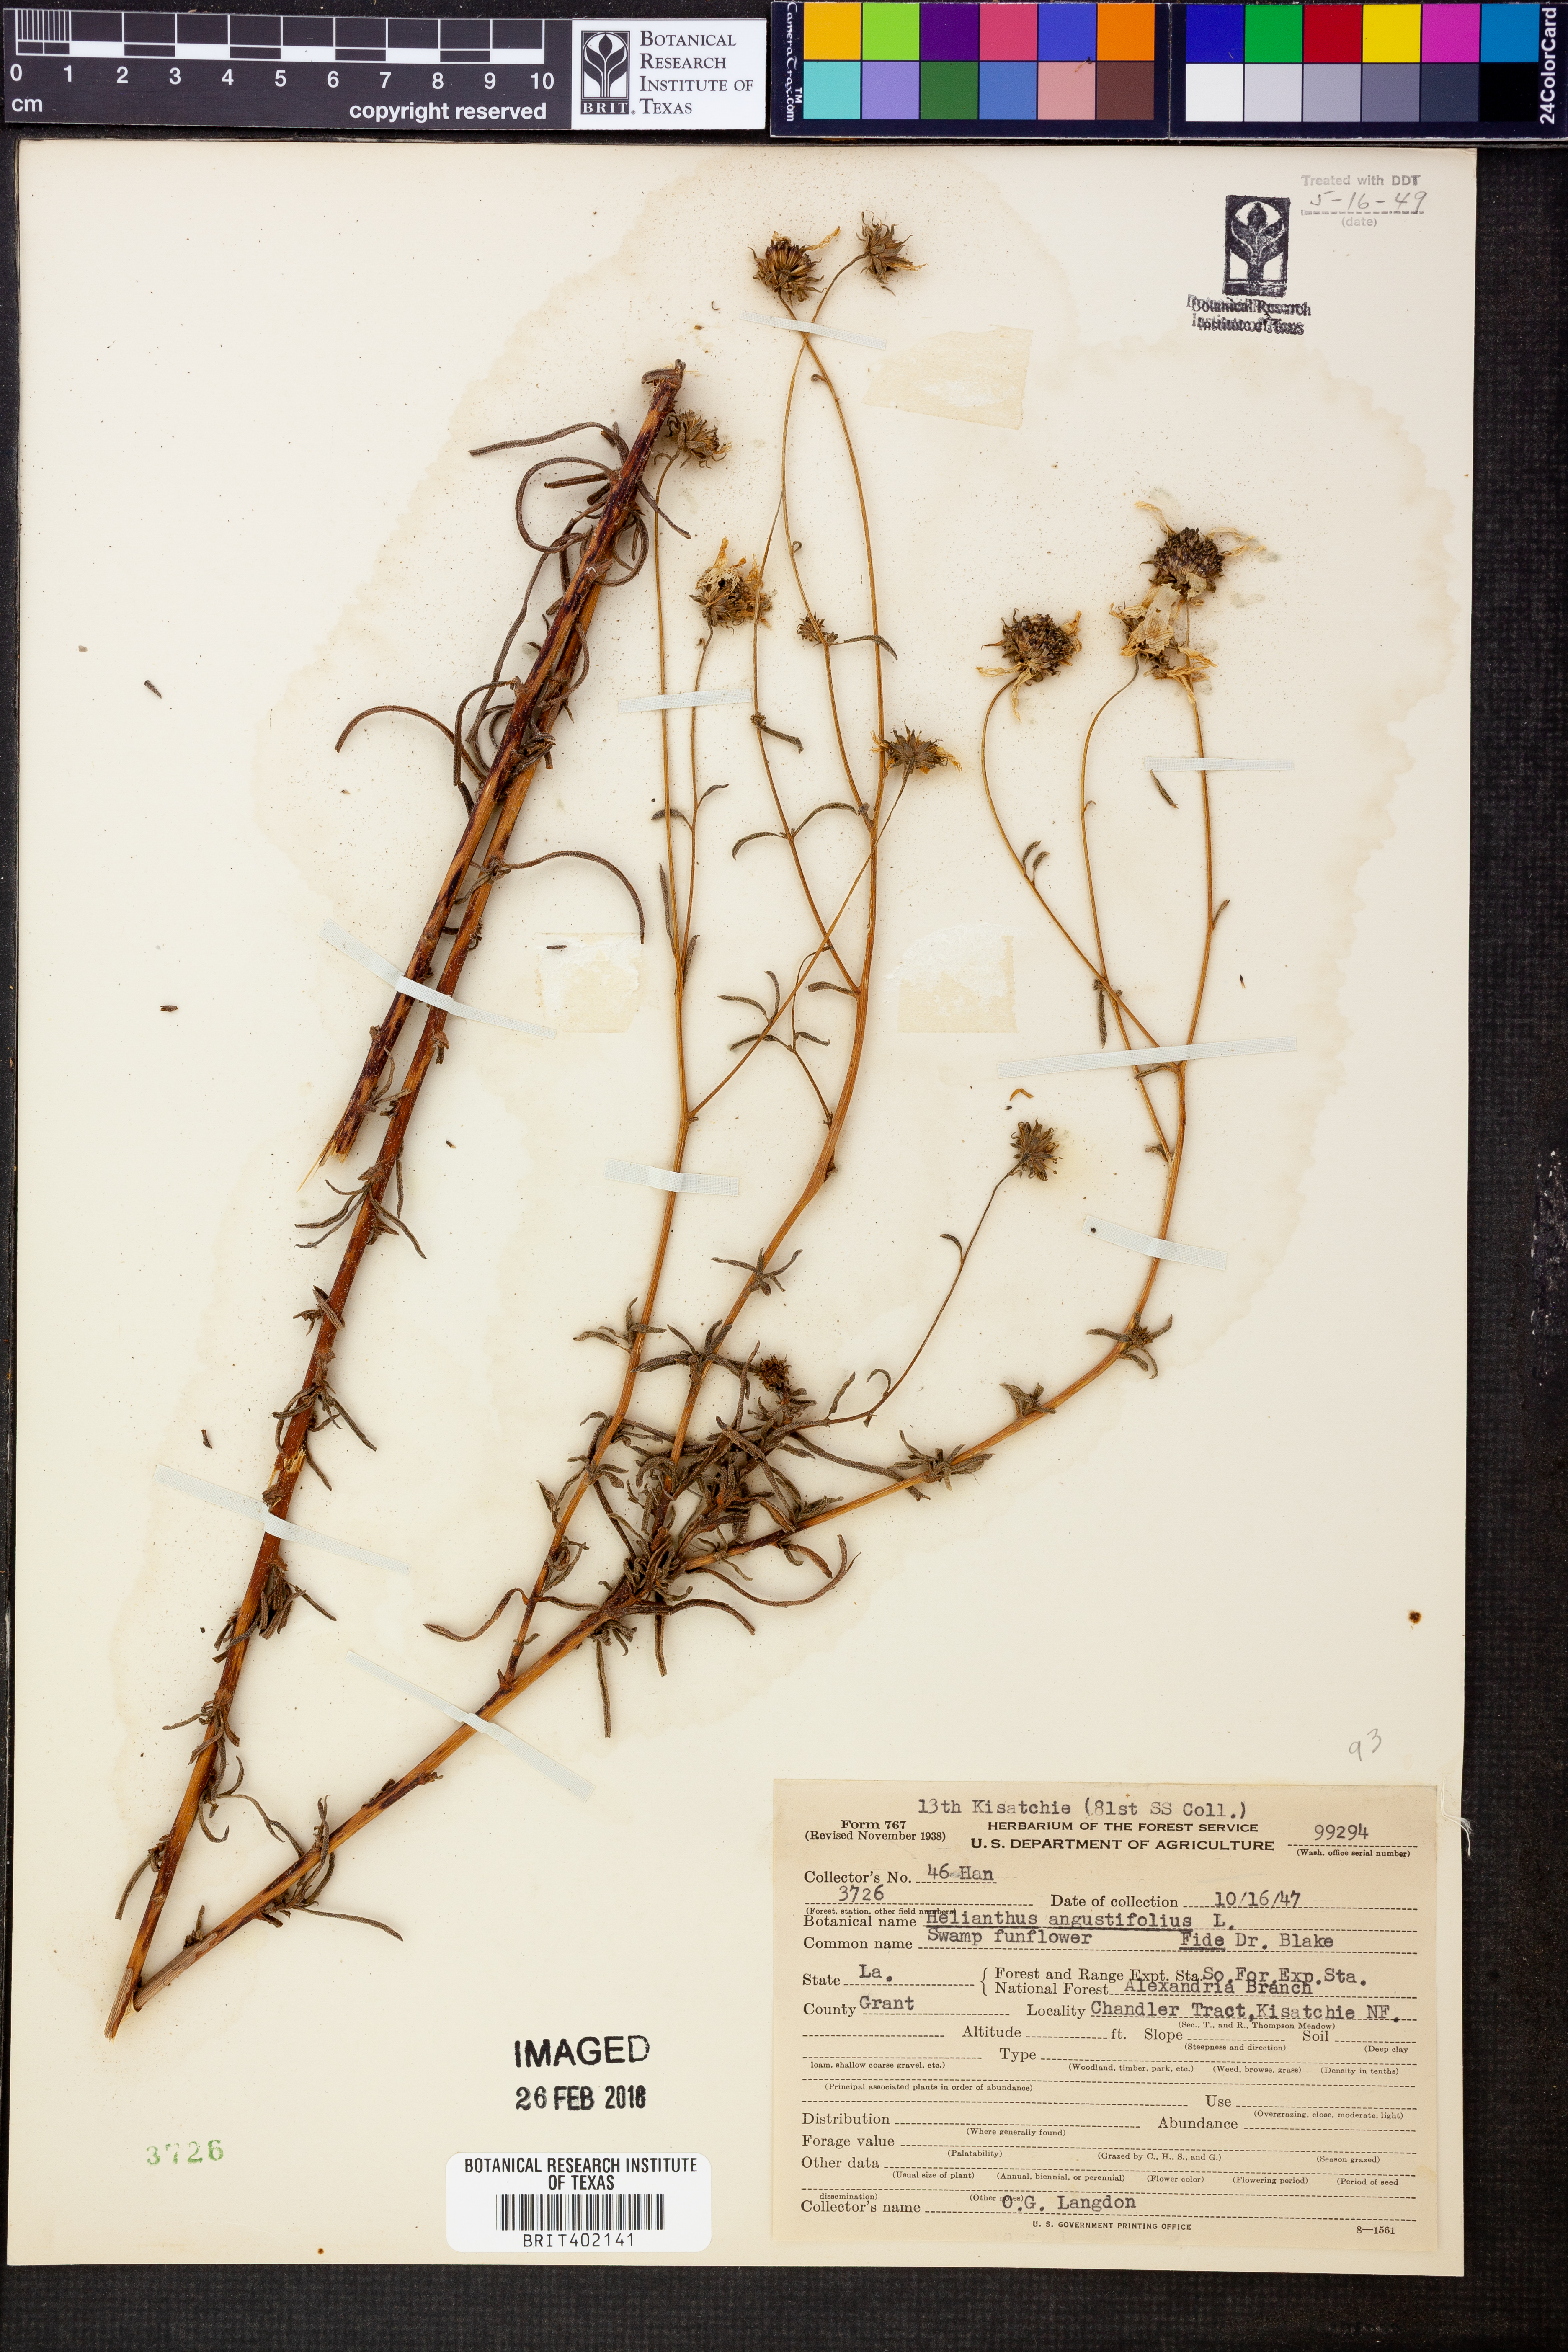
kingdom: Plantae
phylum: Tracheophyta
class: Magnoliopsida
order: Asterales
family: Asteraceae
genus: Helianthus
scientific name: Helianthus angustifolius
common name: Swamp sunflower
